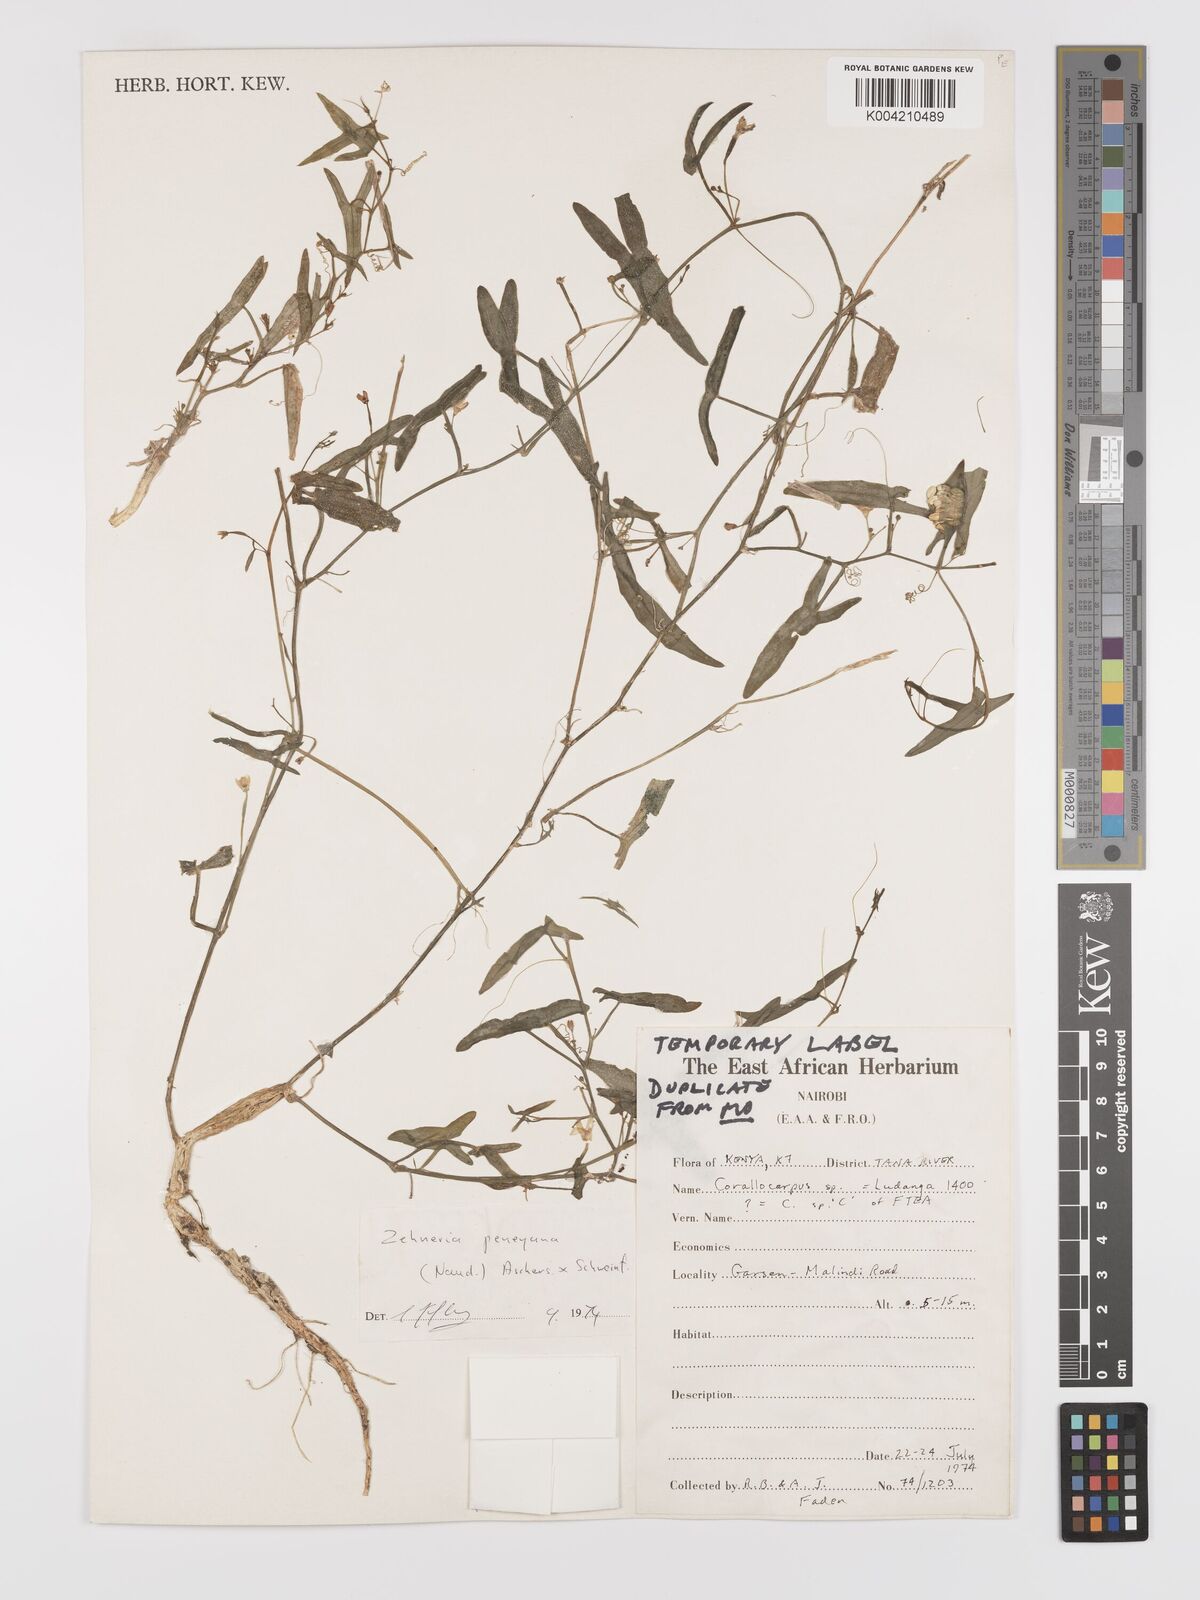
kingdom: Plantae
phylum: Tracheophyta
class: Magnoliopsida
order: Cucurbitales
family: Cucurbitaceae
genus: Zehneria
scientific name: Zehneria peneyana
